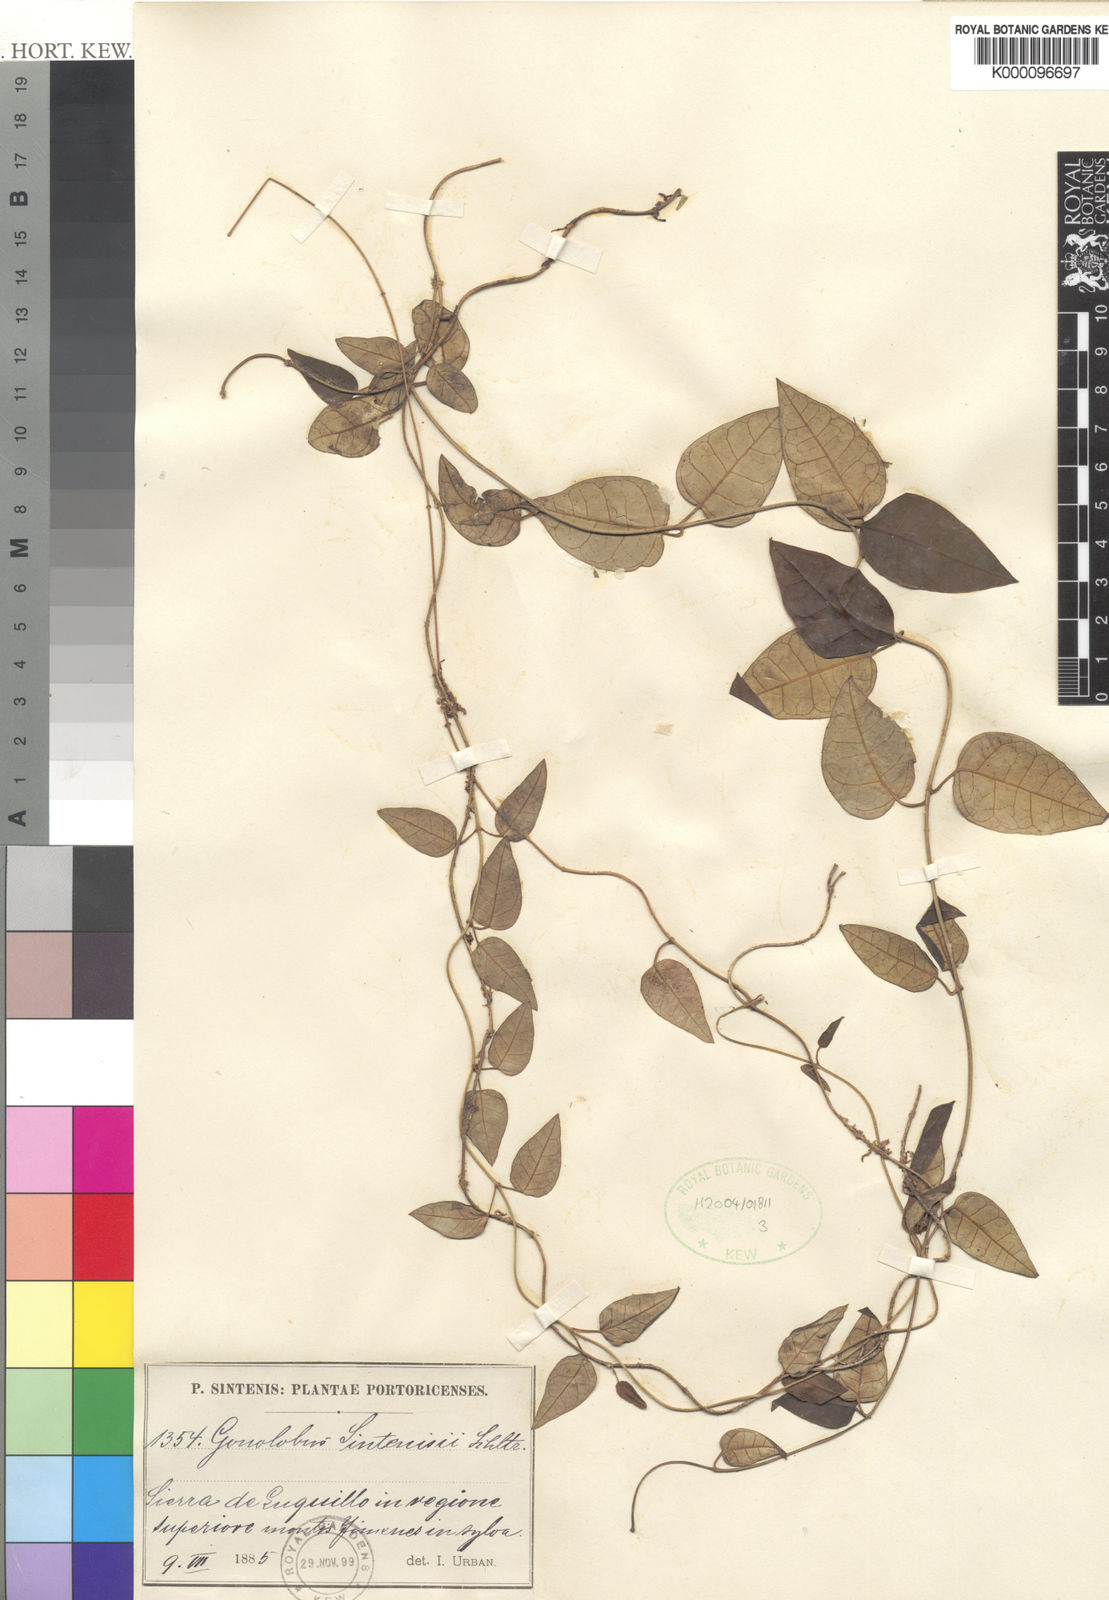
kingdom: Plantae
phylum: Tracheophyta
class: Magnoliopsida
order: Gentianales
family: Apocynaceae
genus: Matelea
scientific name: Matelea sintenisii
